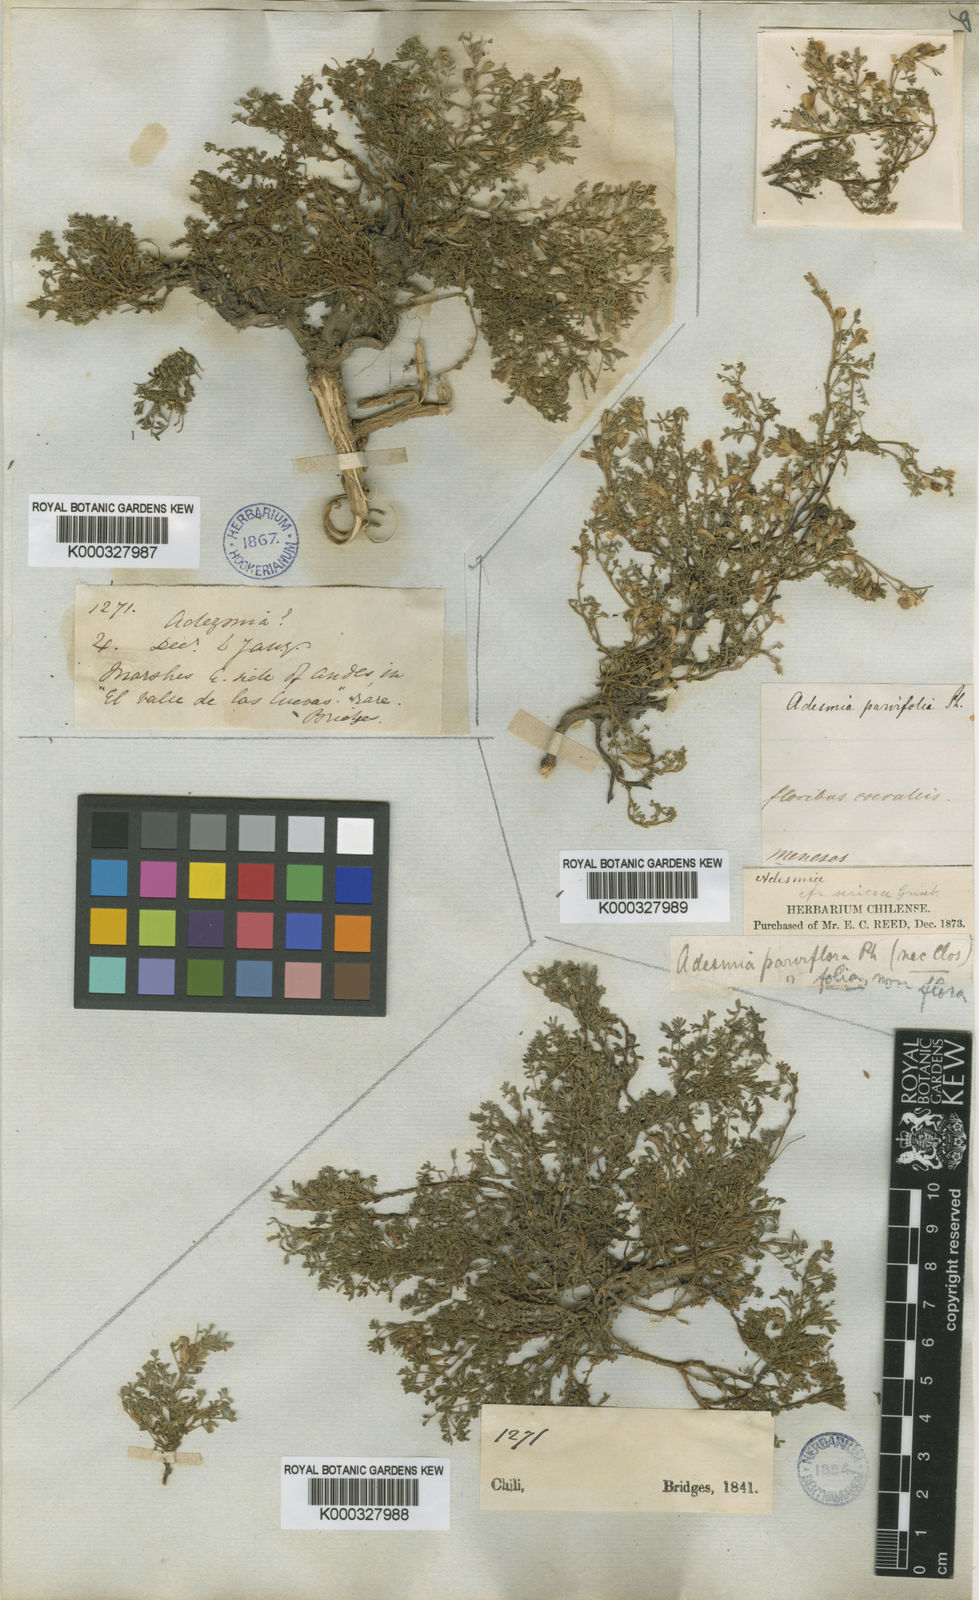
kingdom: Plantae
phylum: Tracheophyta
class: Magnoliopsida
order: Fabales
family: Fabaceae
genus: Adesmia
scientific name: Adesmia parviflora
